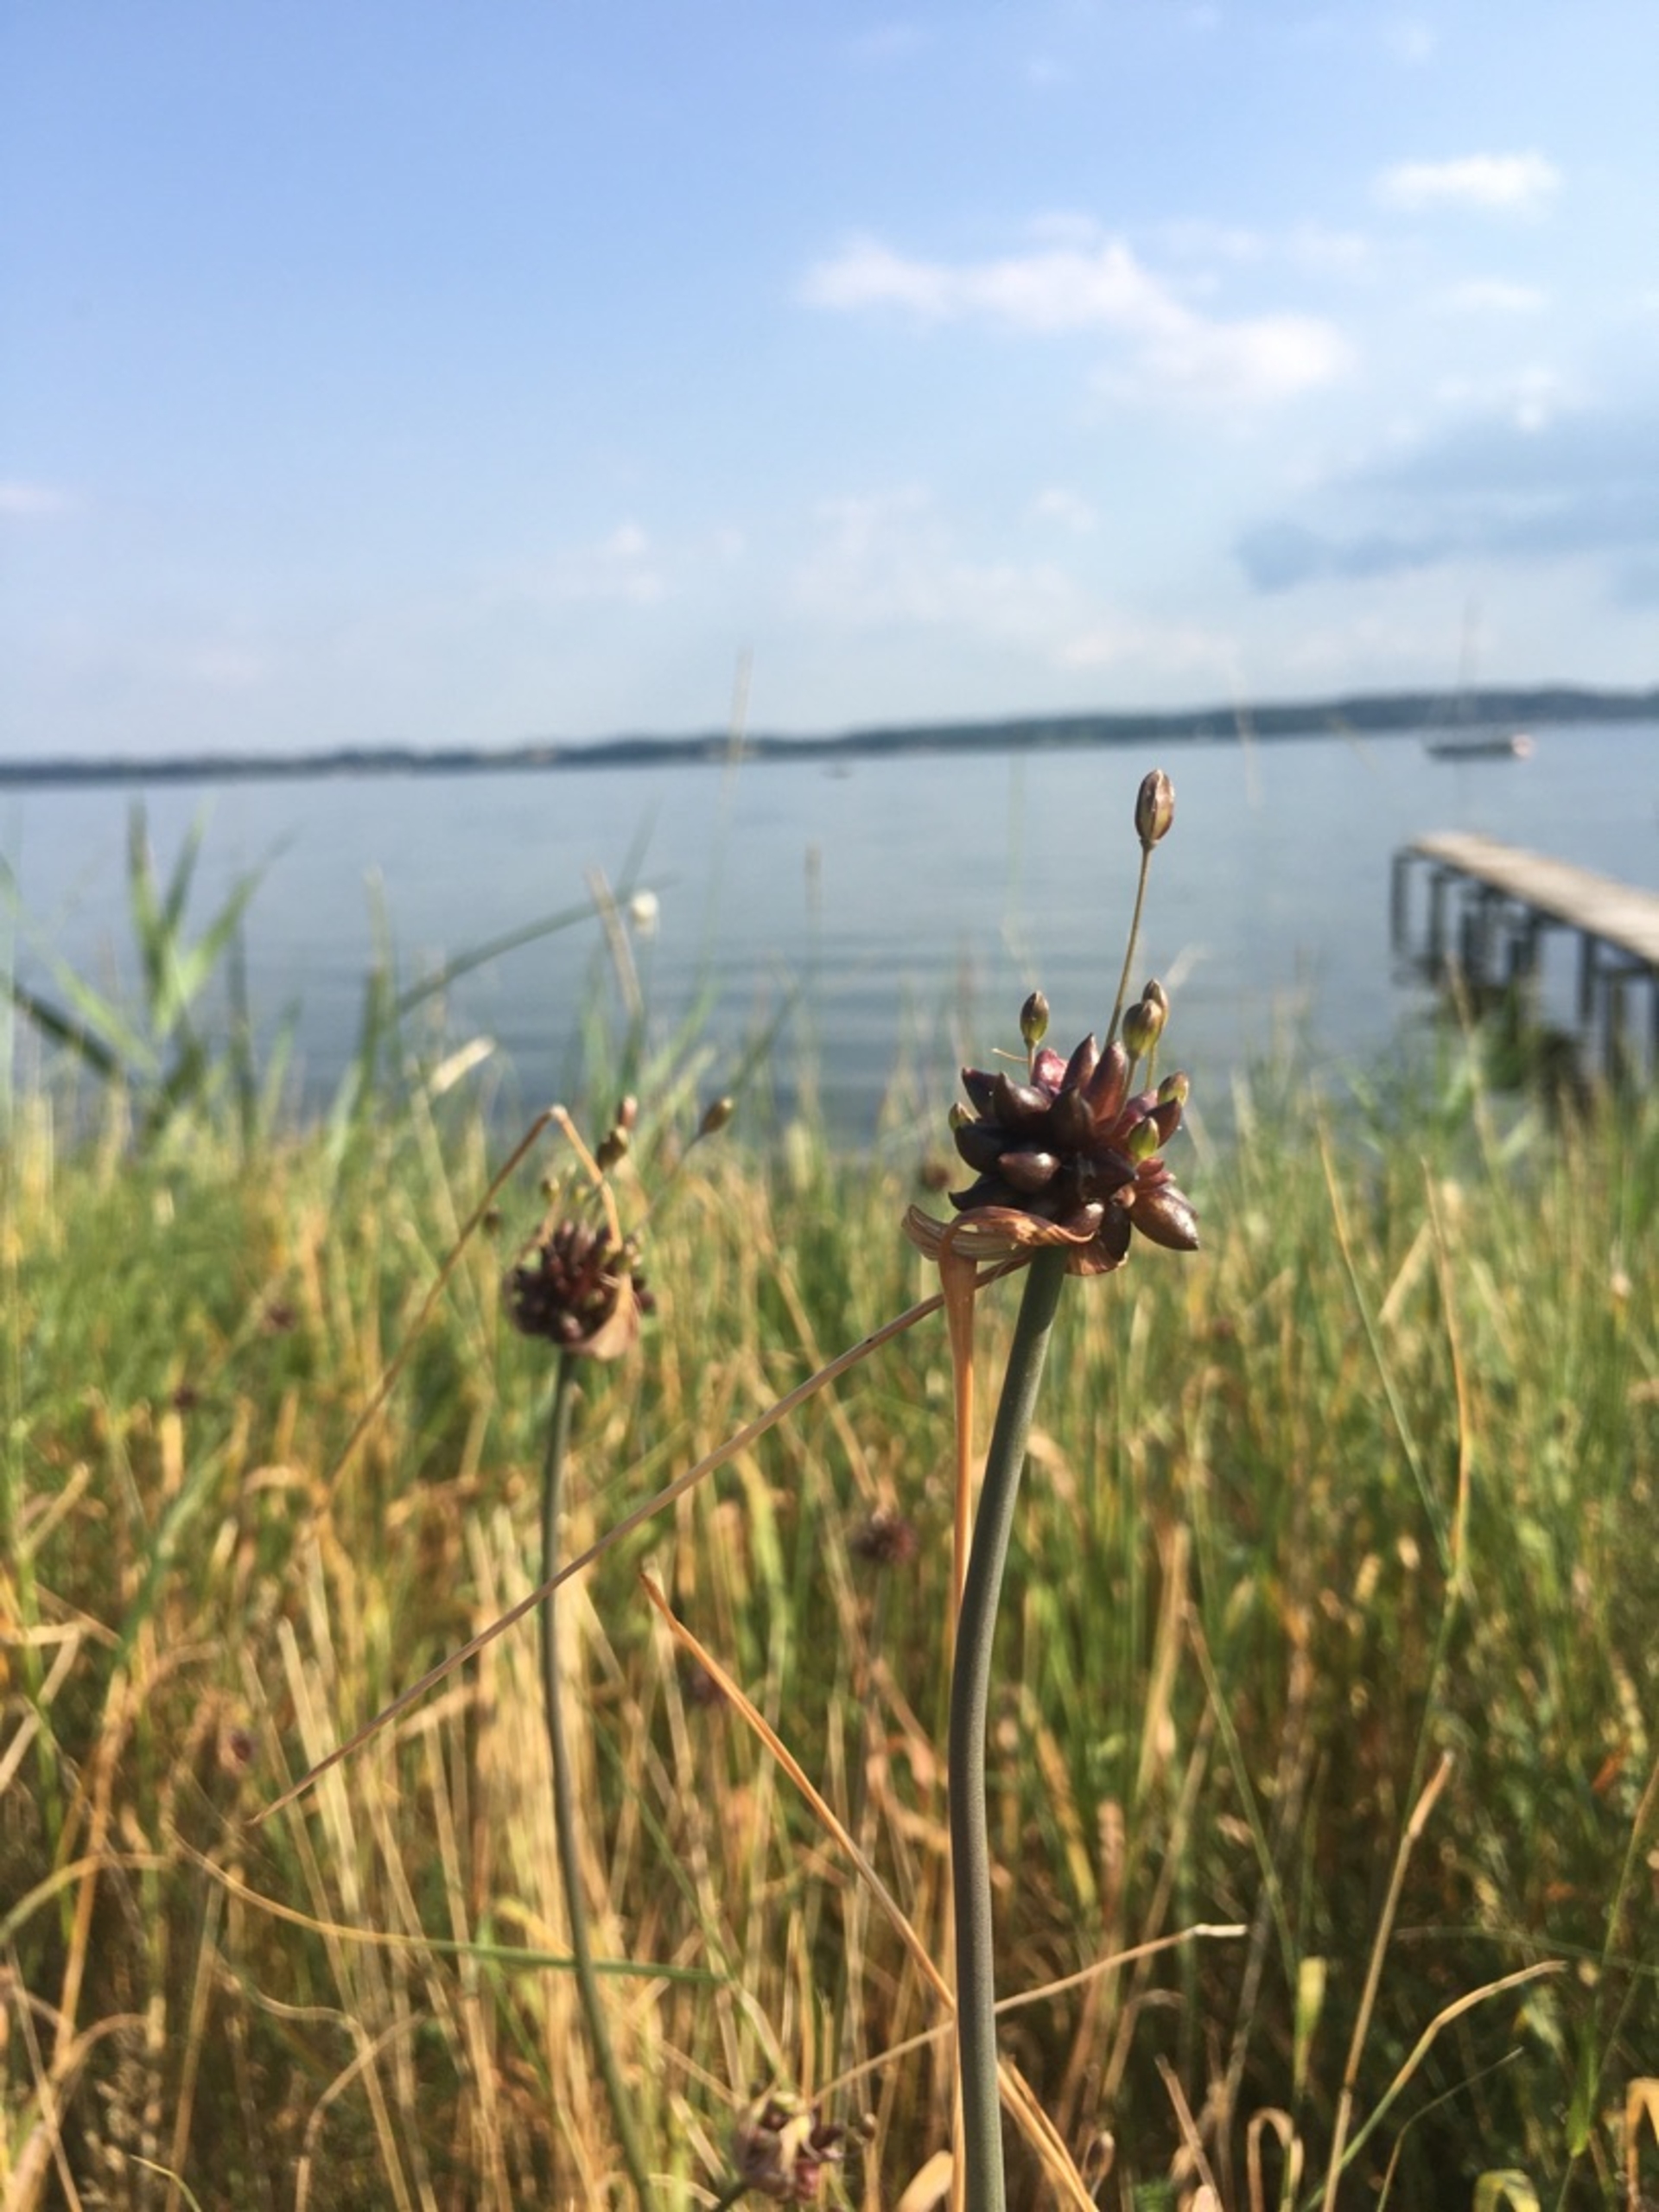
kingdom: Plantae
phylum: Tracheophyta
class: Liliopsida
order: Asparagales
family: Amaryllidaceae
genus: Allium
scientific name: Allium oleraceum
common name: Vild løg
